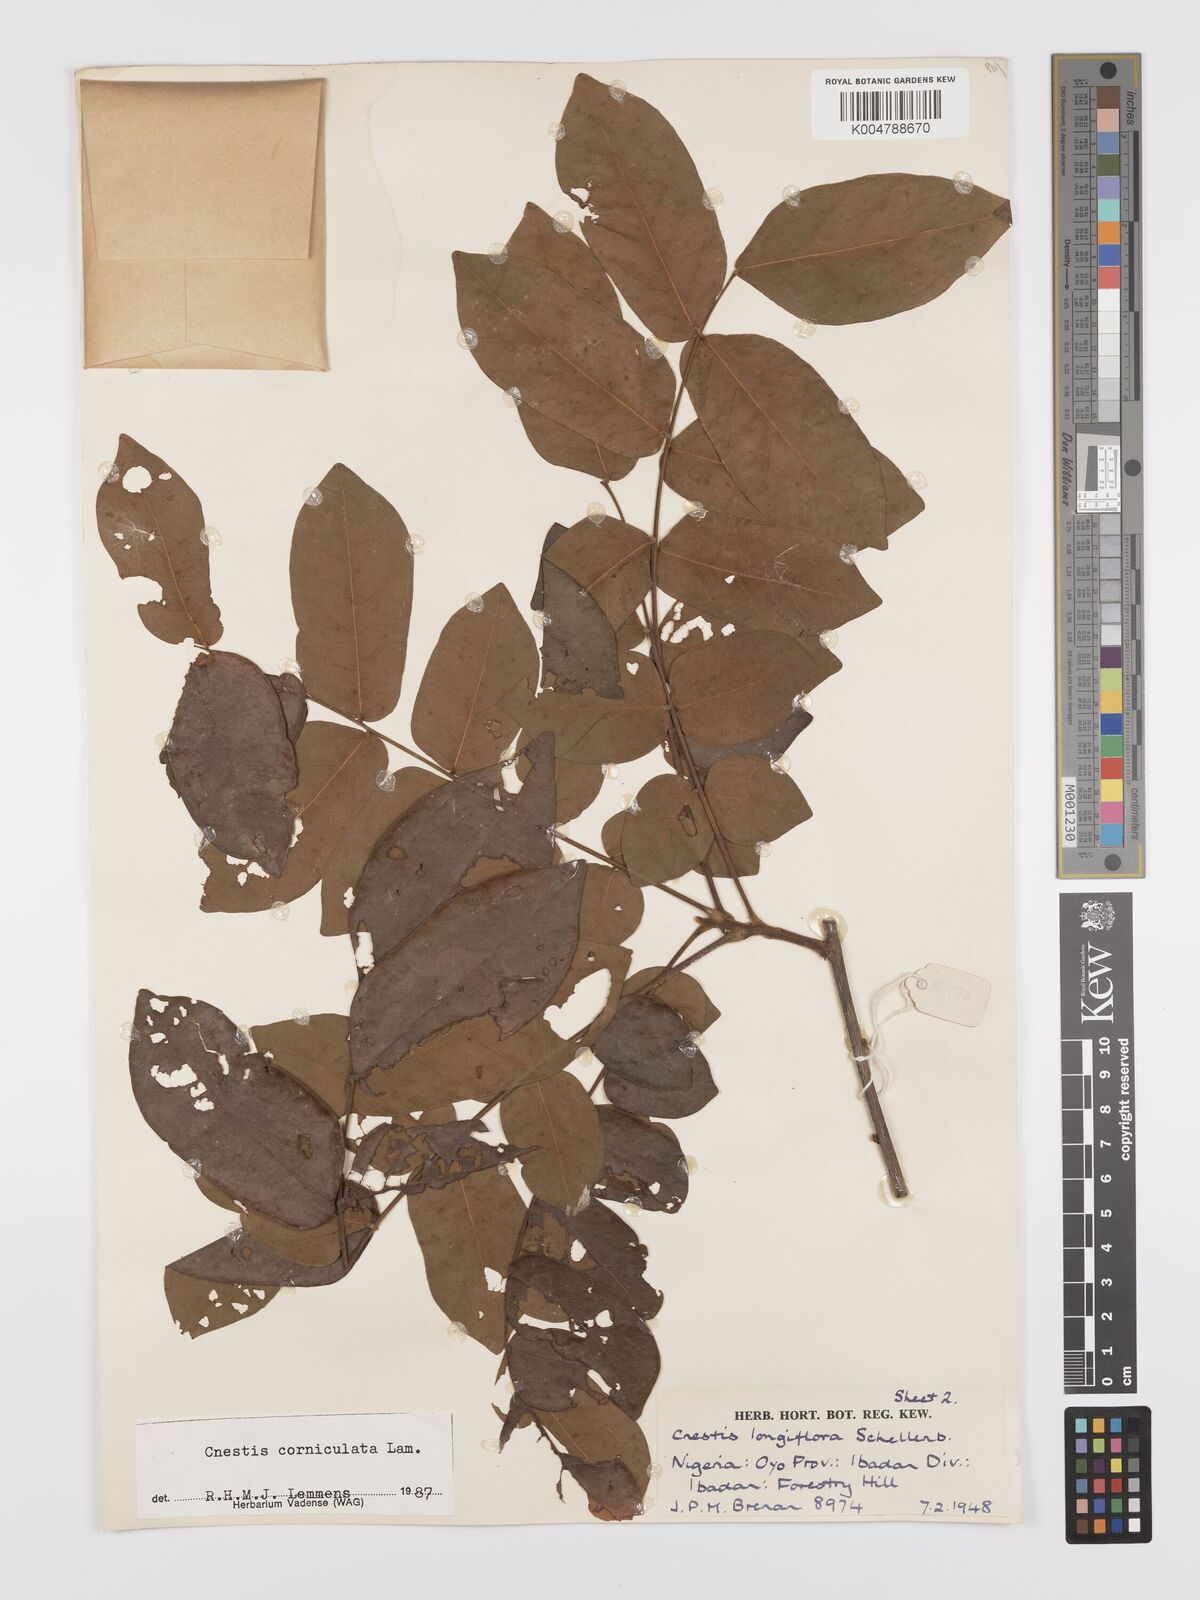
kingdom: Plantae
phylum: Tracheophyta
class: Magnoliopsida
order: Oxalidales
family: Connaraceae
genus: Cnestis
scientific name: Cnestis corniculata
